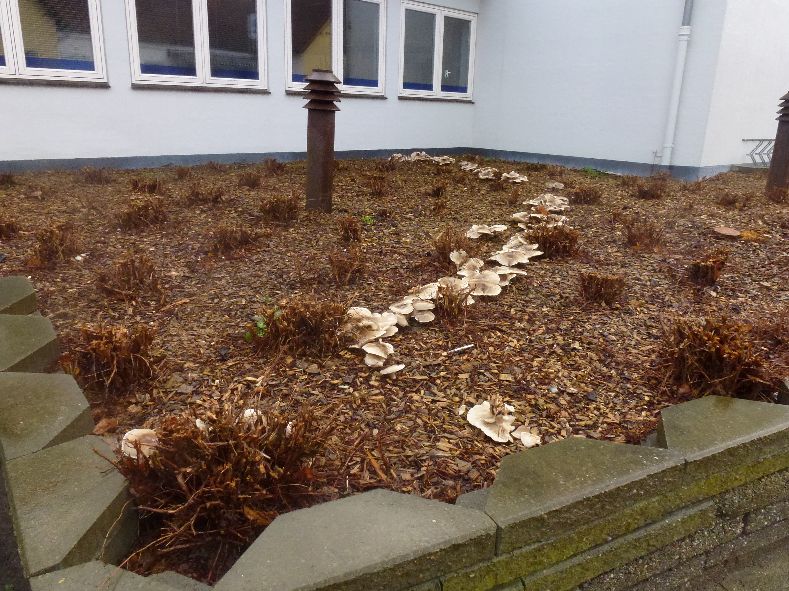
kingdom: Fungi
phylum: Basidiomycota
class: Agaricomycetes
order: Agaricales
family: Tricholomataceae
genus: Clitocybe
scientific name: Clitocybe nebularis
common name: tåge-tragthat
